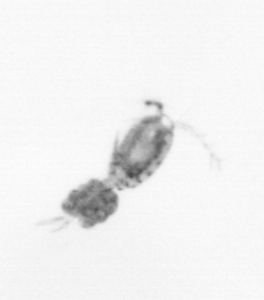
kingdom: Animalia
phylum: Arthropoda
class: Copepoda
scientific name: Copepoda
